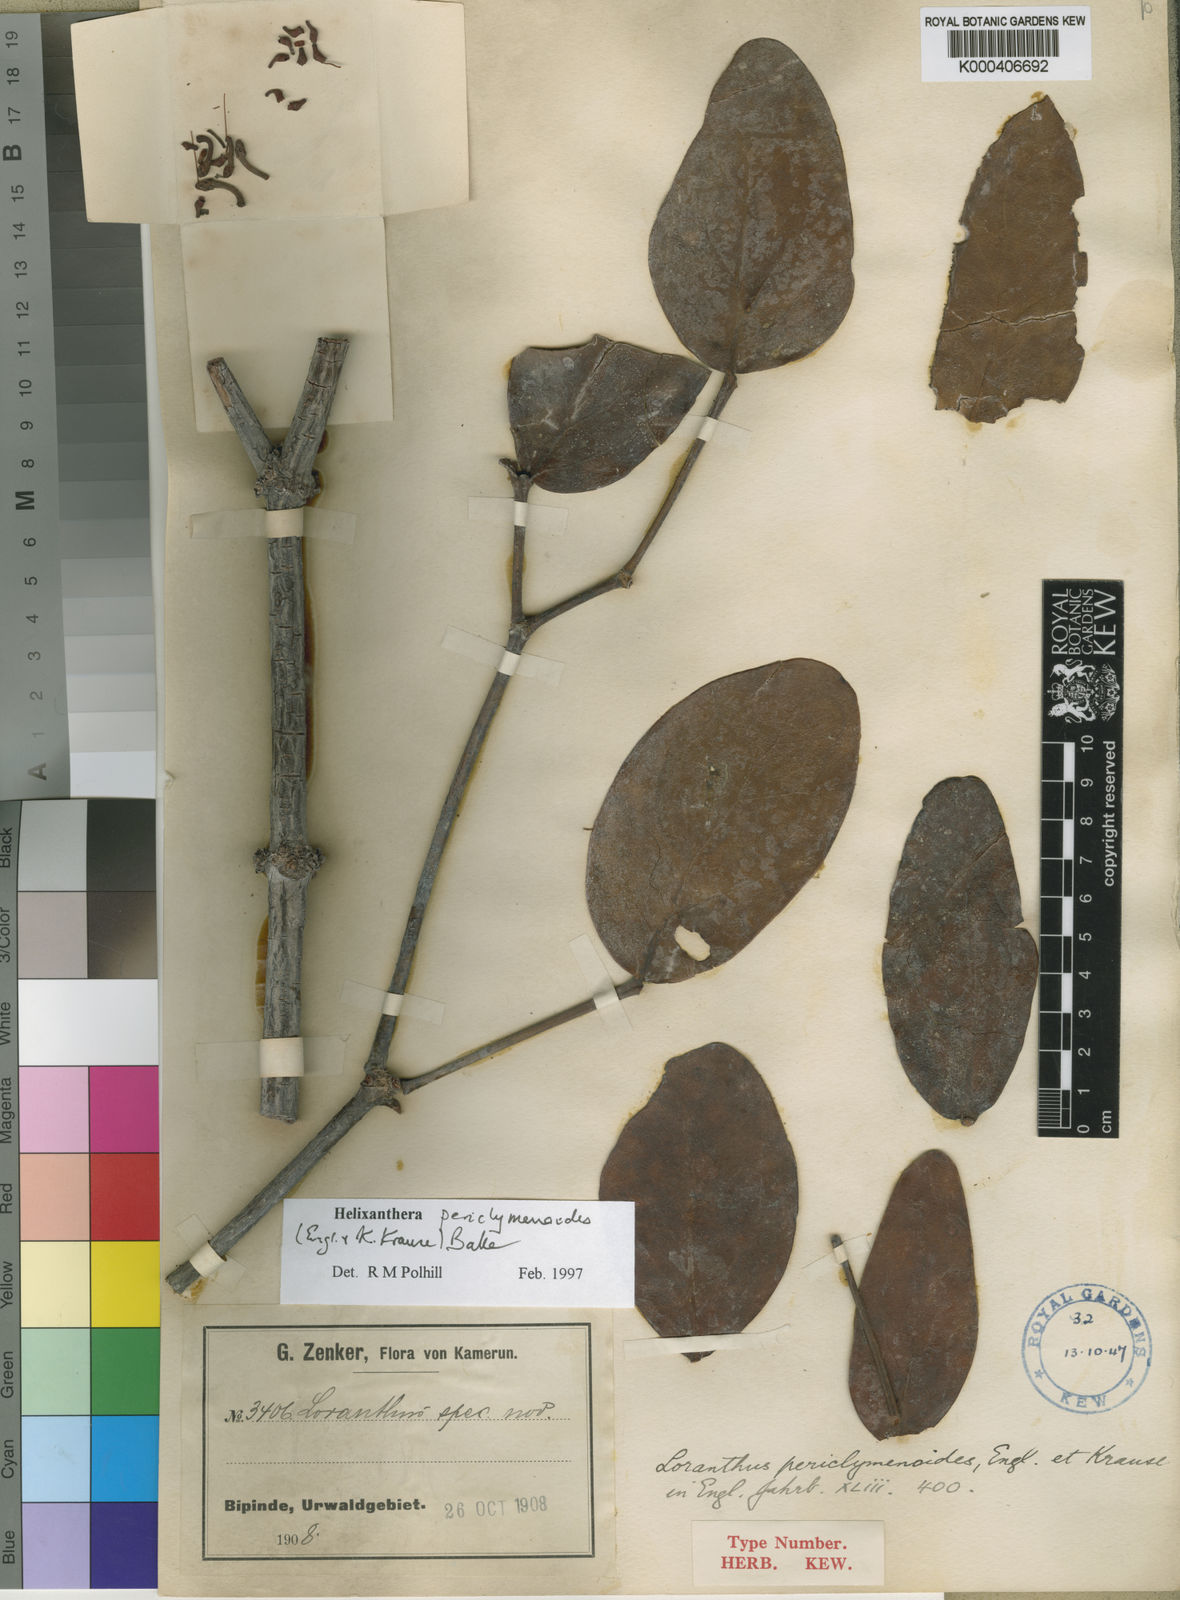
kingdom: Plantae
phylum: Tracheophyta
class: Magnoliopsida
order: Santalales
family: Loranthaceae
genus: Helixanthera
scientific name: Helixanthera periclymenoides
